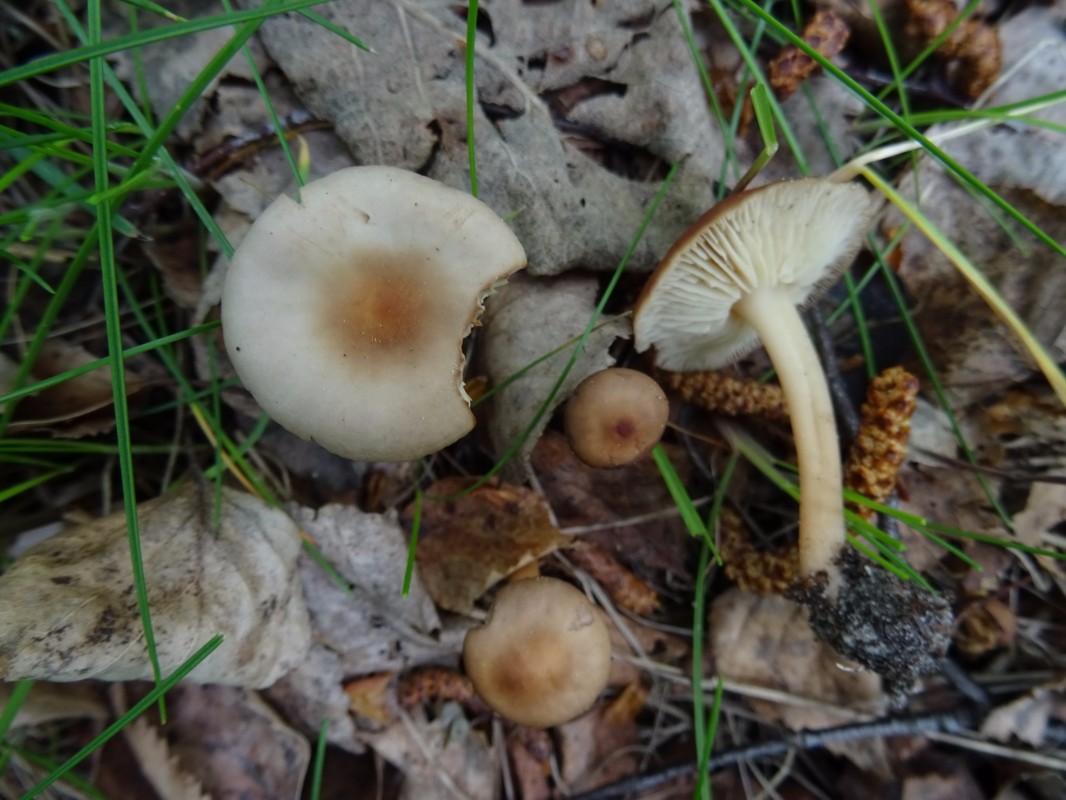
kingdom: Fungi
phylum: Basidiomycota
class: Agaricomycetes
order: Agaricales
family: Omphalotaceae
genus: Gymnopus
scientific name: Gymnopus ocior
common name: mørk fladhat
